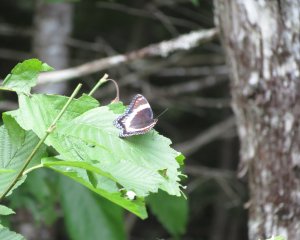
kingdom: Animalia
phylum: Arthropoda
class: Insecta
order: Lepidoptera
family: Nymphalidae
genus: Limenitis
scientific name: Limenitis arthemis
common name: Red-spotted Admiral
